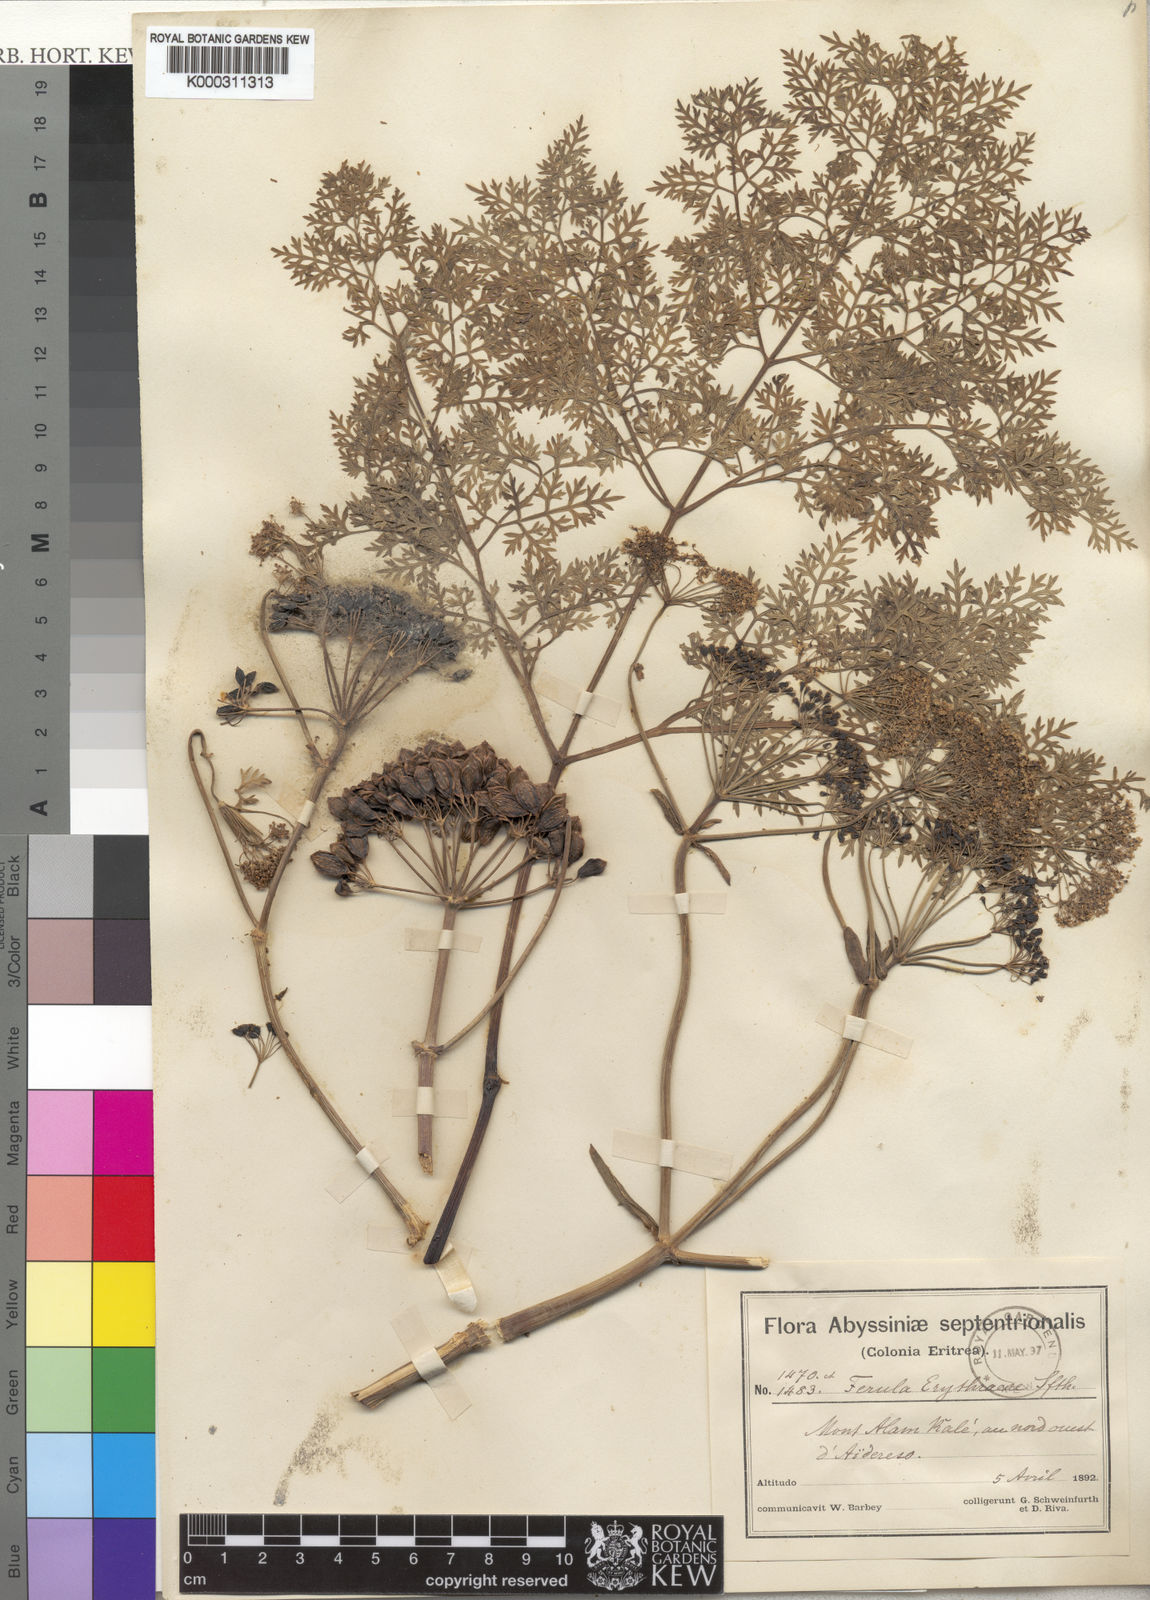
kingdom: Plantae
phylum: Tracheophyta
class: Magnoliopsida
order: Apiales
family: Apiaceae
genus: Ferula
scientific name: Ferula
